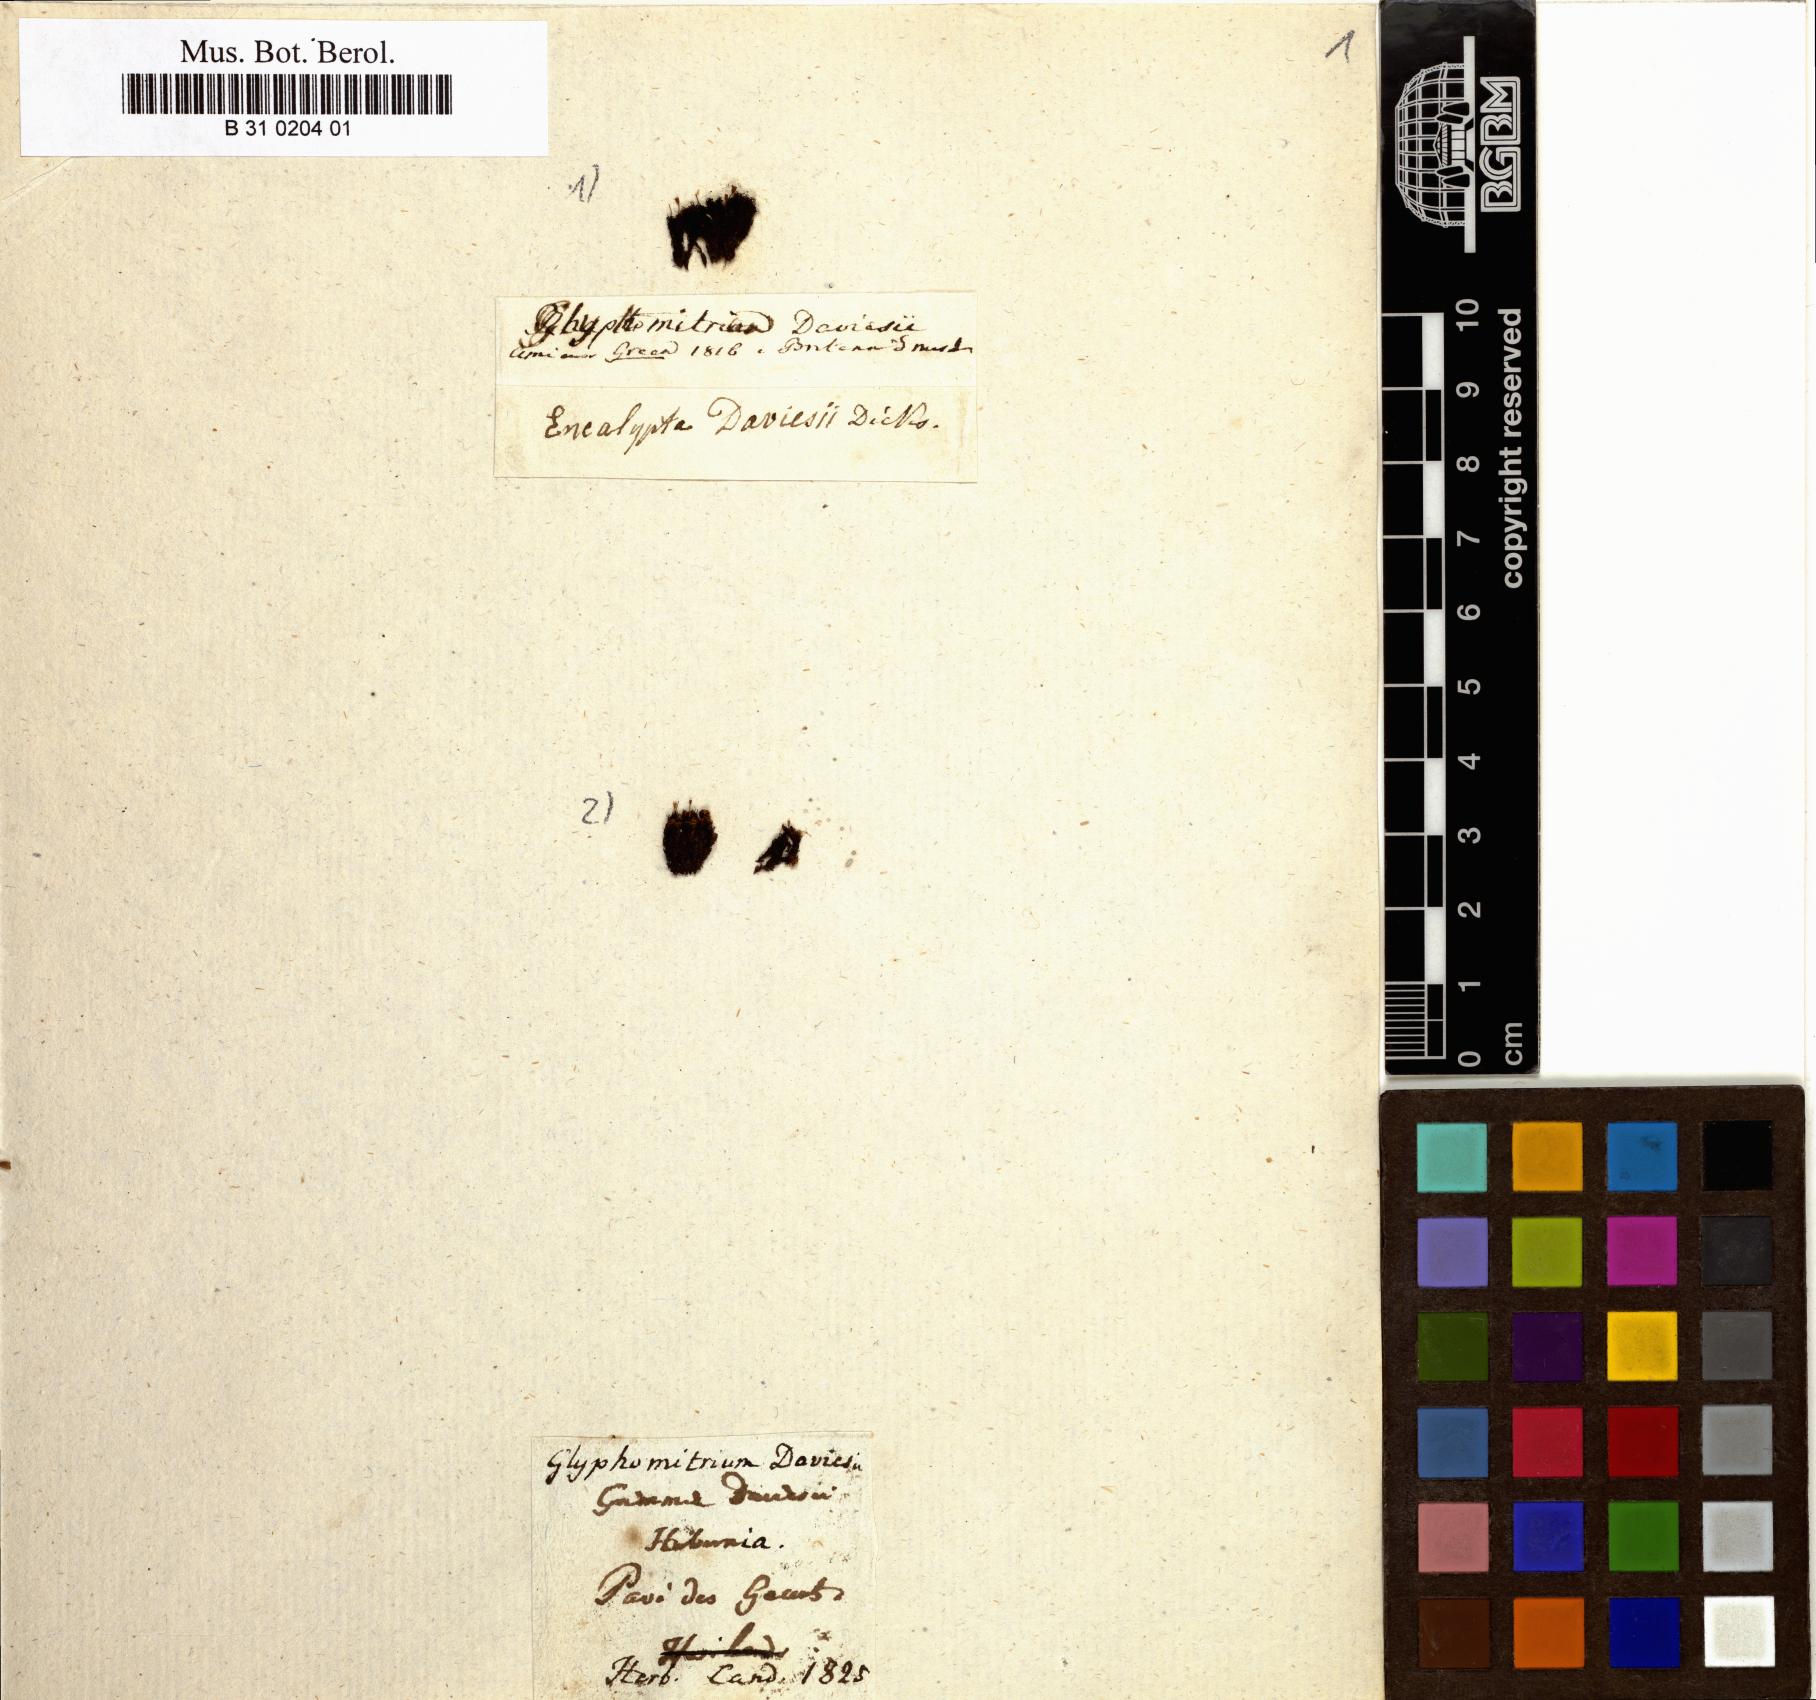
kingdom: Plantae
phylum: Bryophyta
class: Bryopsida
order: Dicranales
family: Rhabdoweisiaceae
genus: Glyphomitrium
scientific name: Glyphomitrium daviesii
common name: Black-tufted moss
